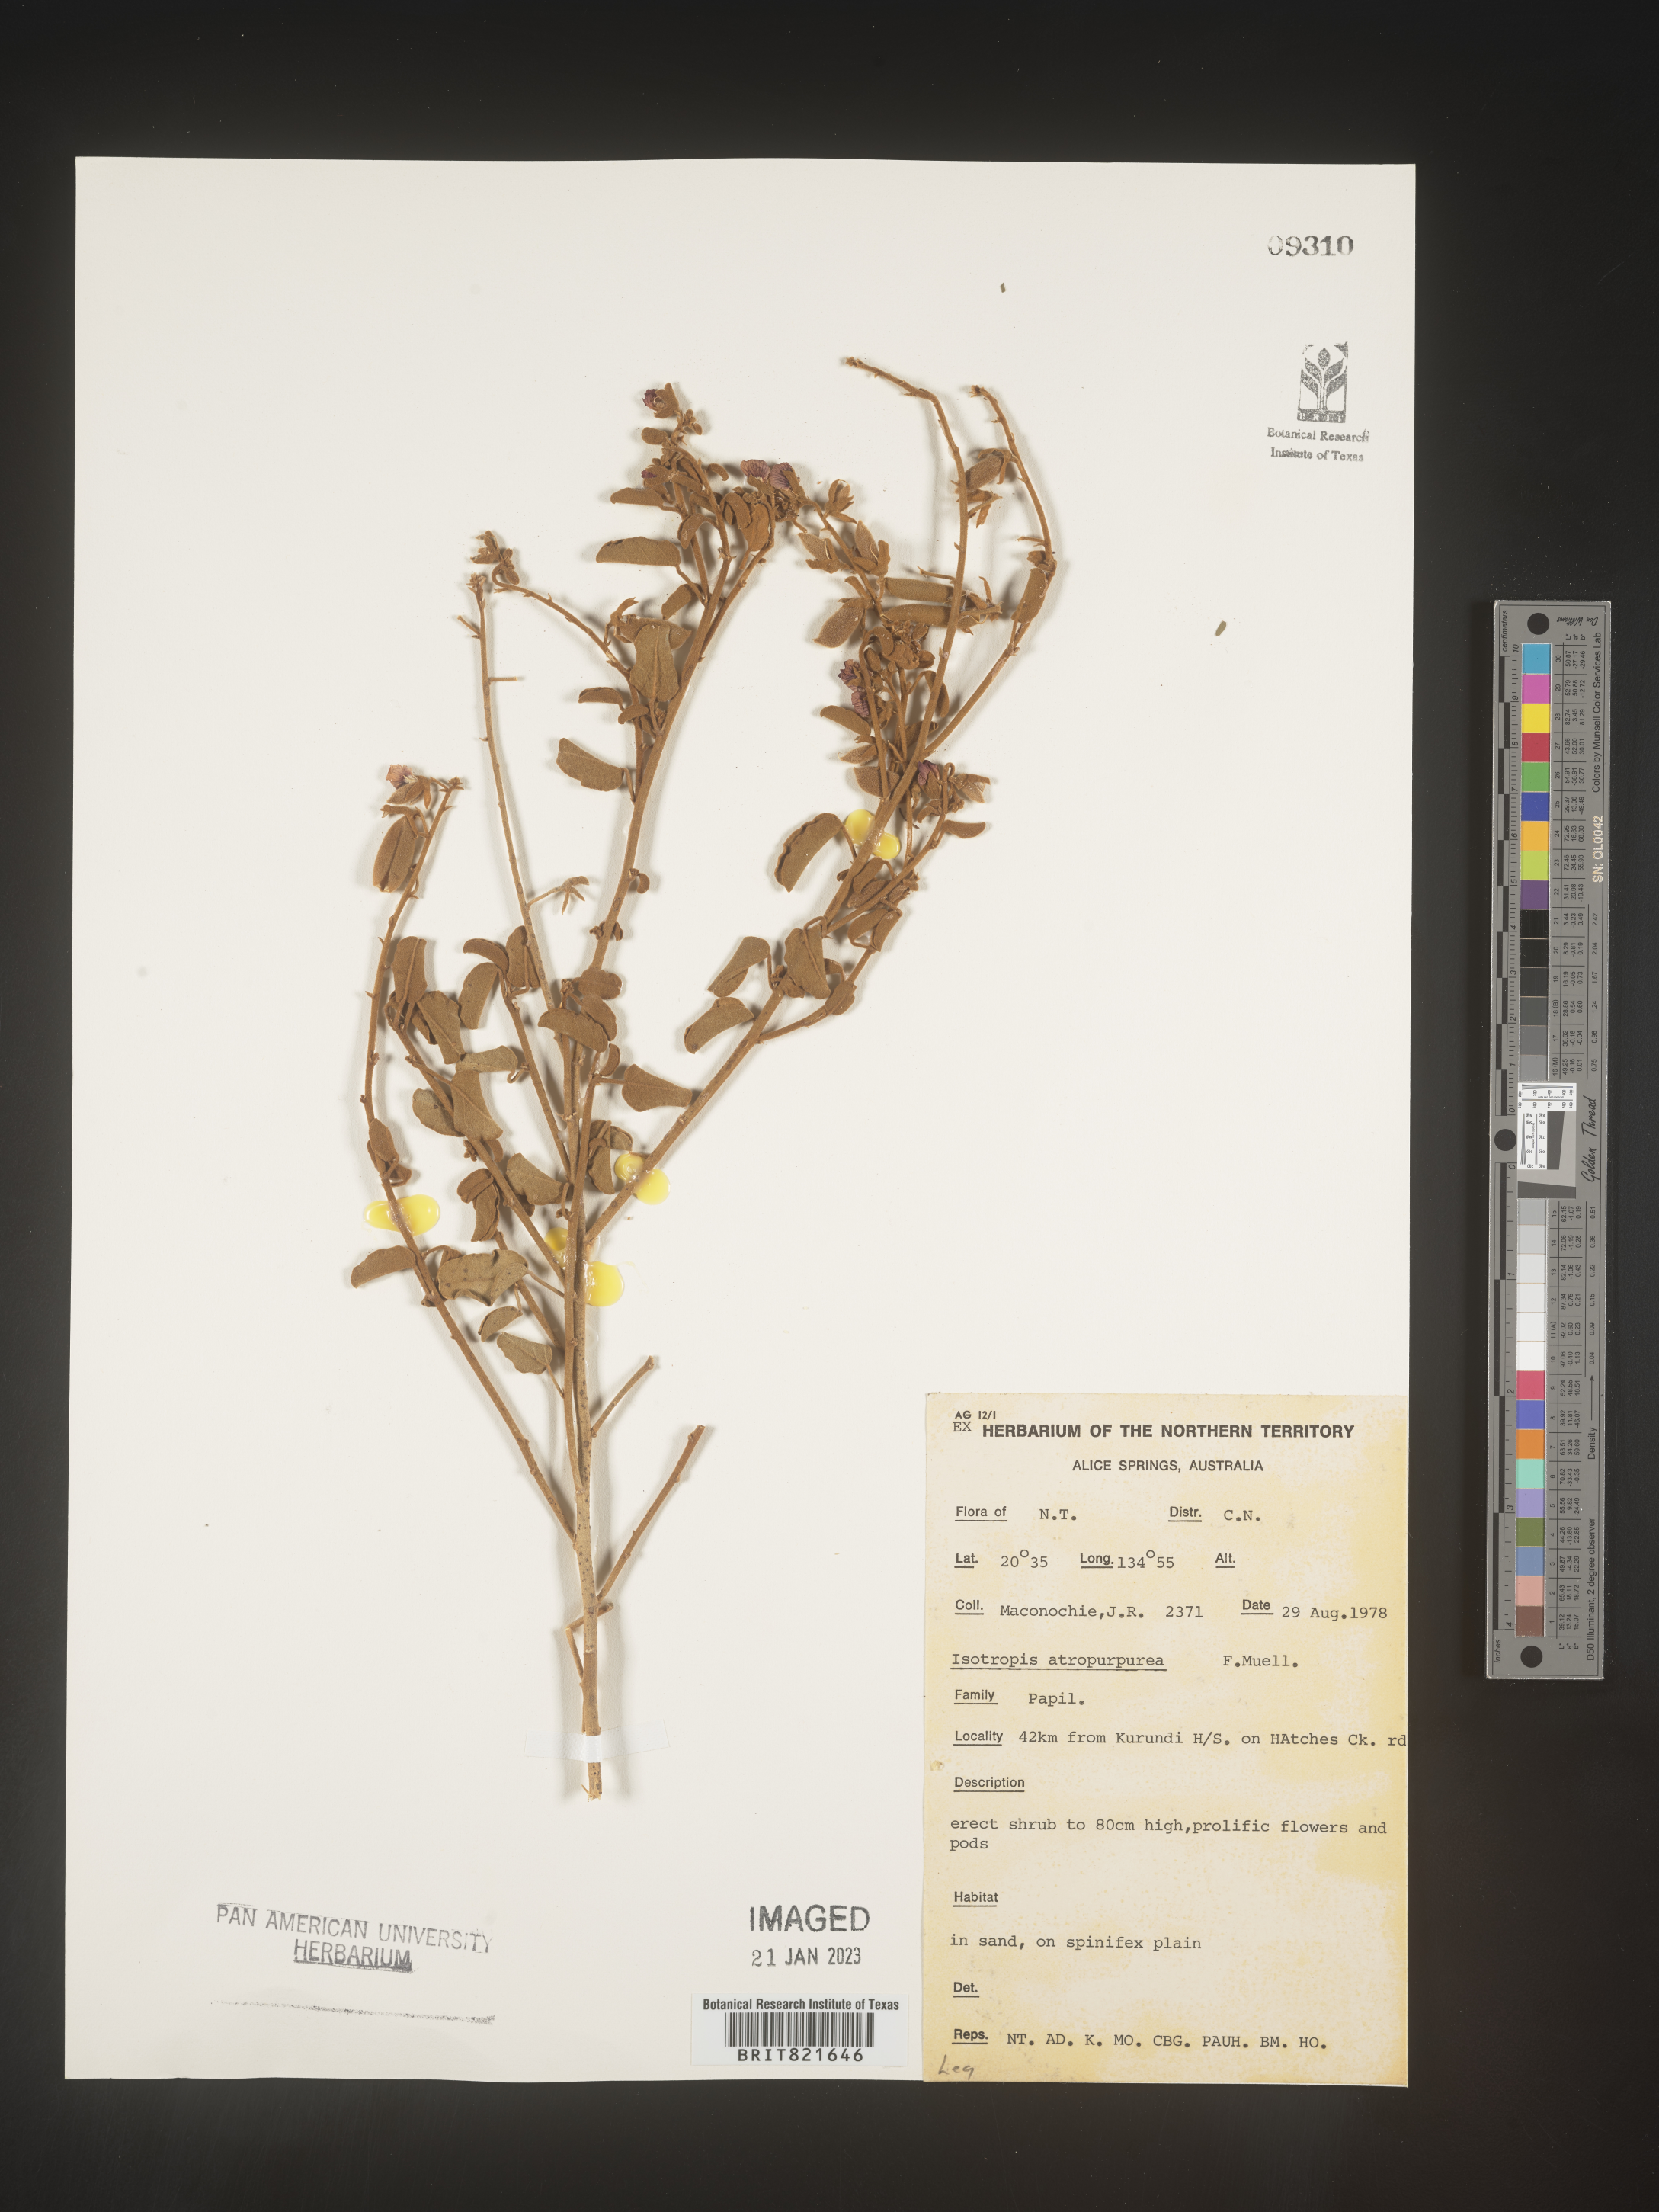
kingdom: Plantae
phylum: Tracheophyta
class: Magnoliopsida
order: Fabales
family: Fabaceae
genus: Isotropis
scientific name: Isotropis
